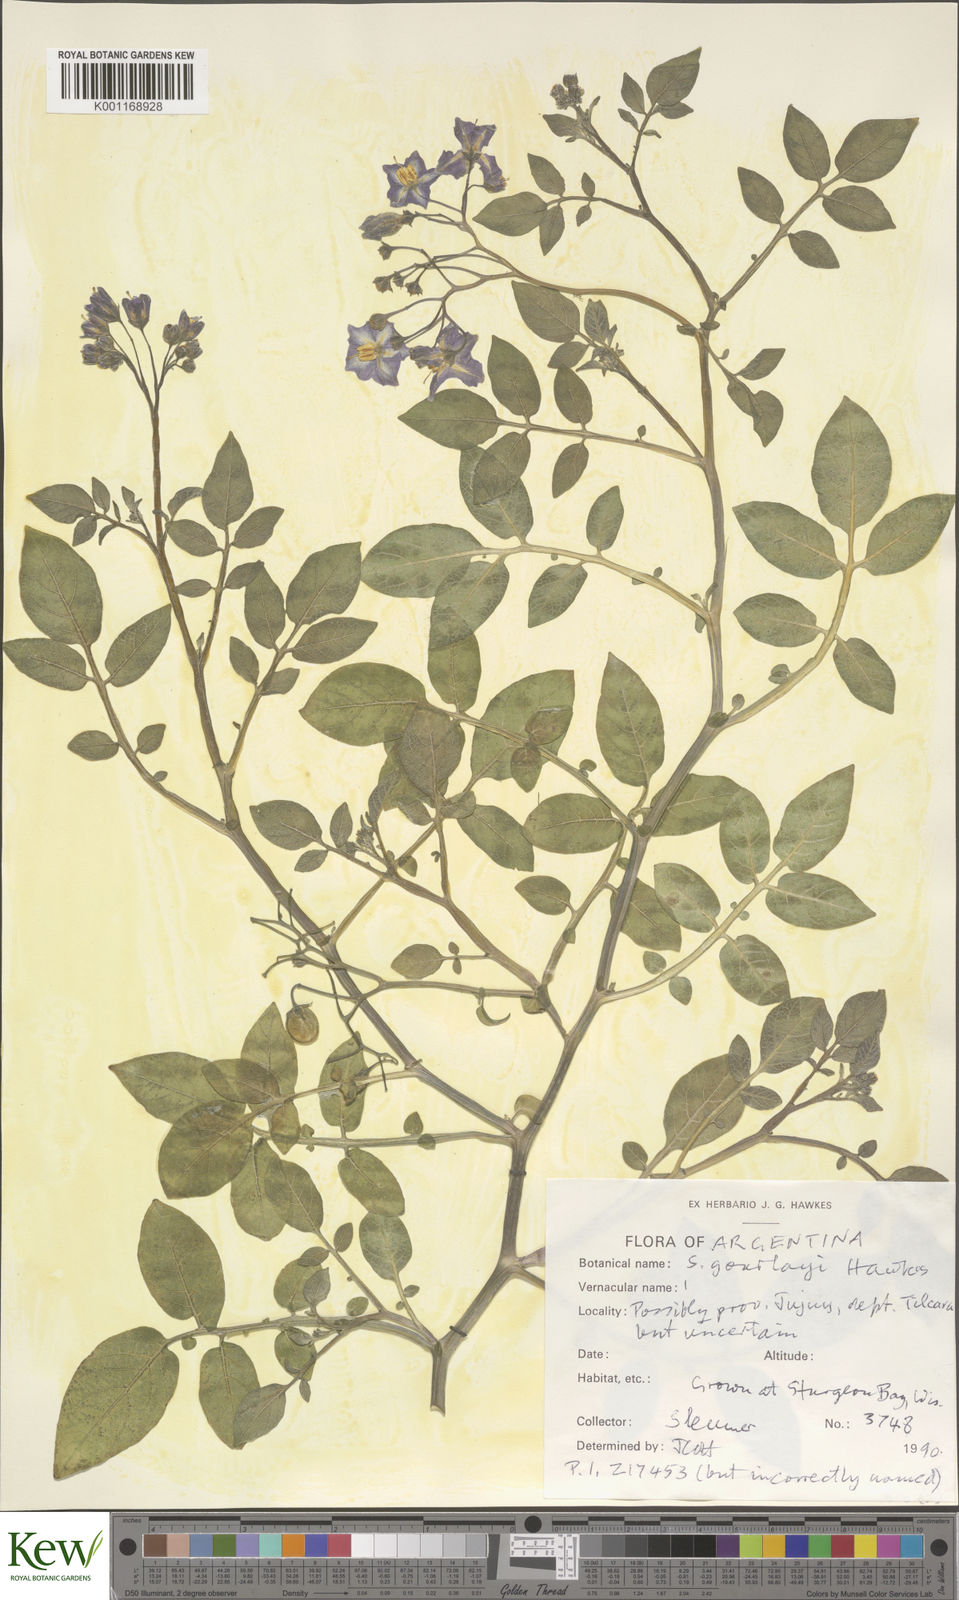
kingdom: Plantae
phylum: Tracheophyta
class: Magnoliopsida
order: Solanales
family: Solanaceae
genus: Solanum
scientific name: Solanum brevicaule
